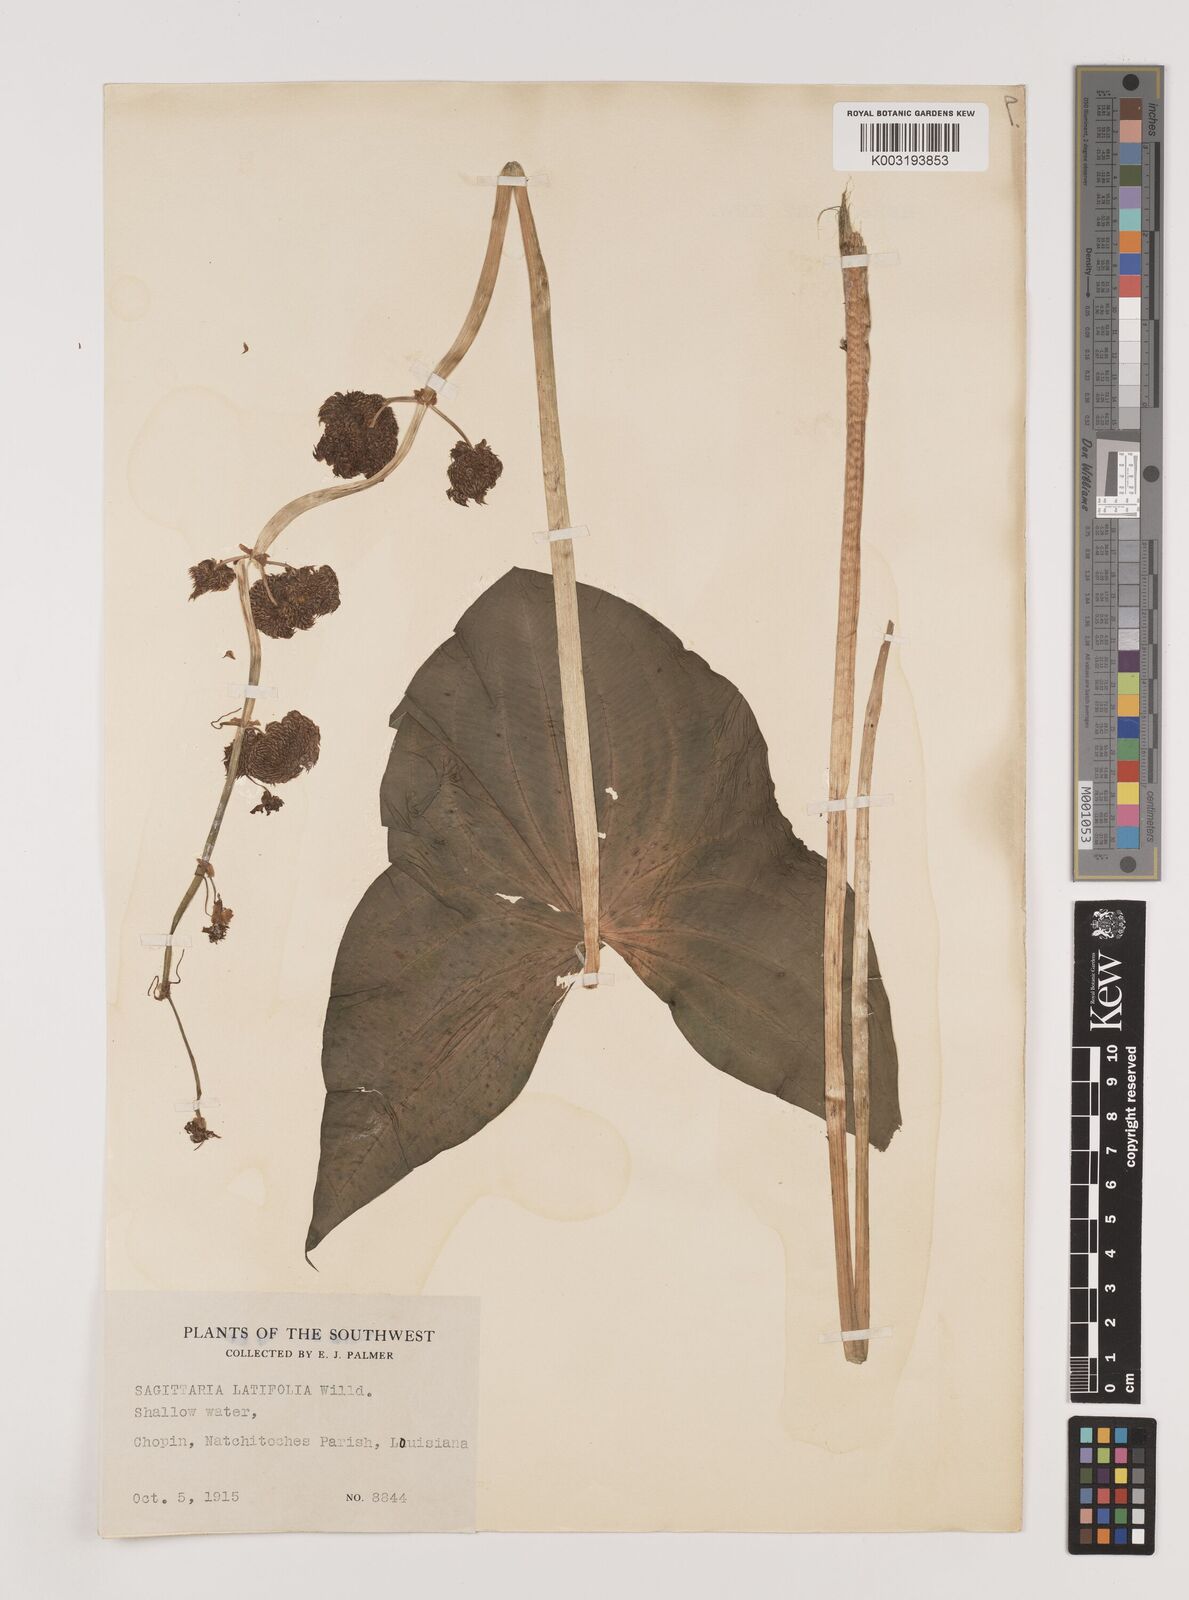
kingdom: Plantae
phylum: Tracheophyta
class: Liliopsida
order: Alismatales
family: Alismataceae
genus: Sagittaria
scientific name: Sagittaria latifolia
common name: Duck-potato
